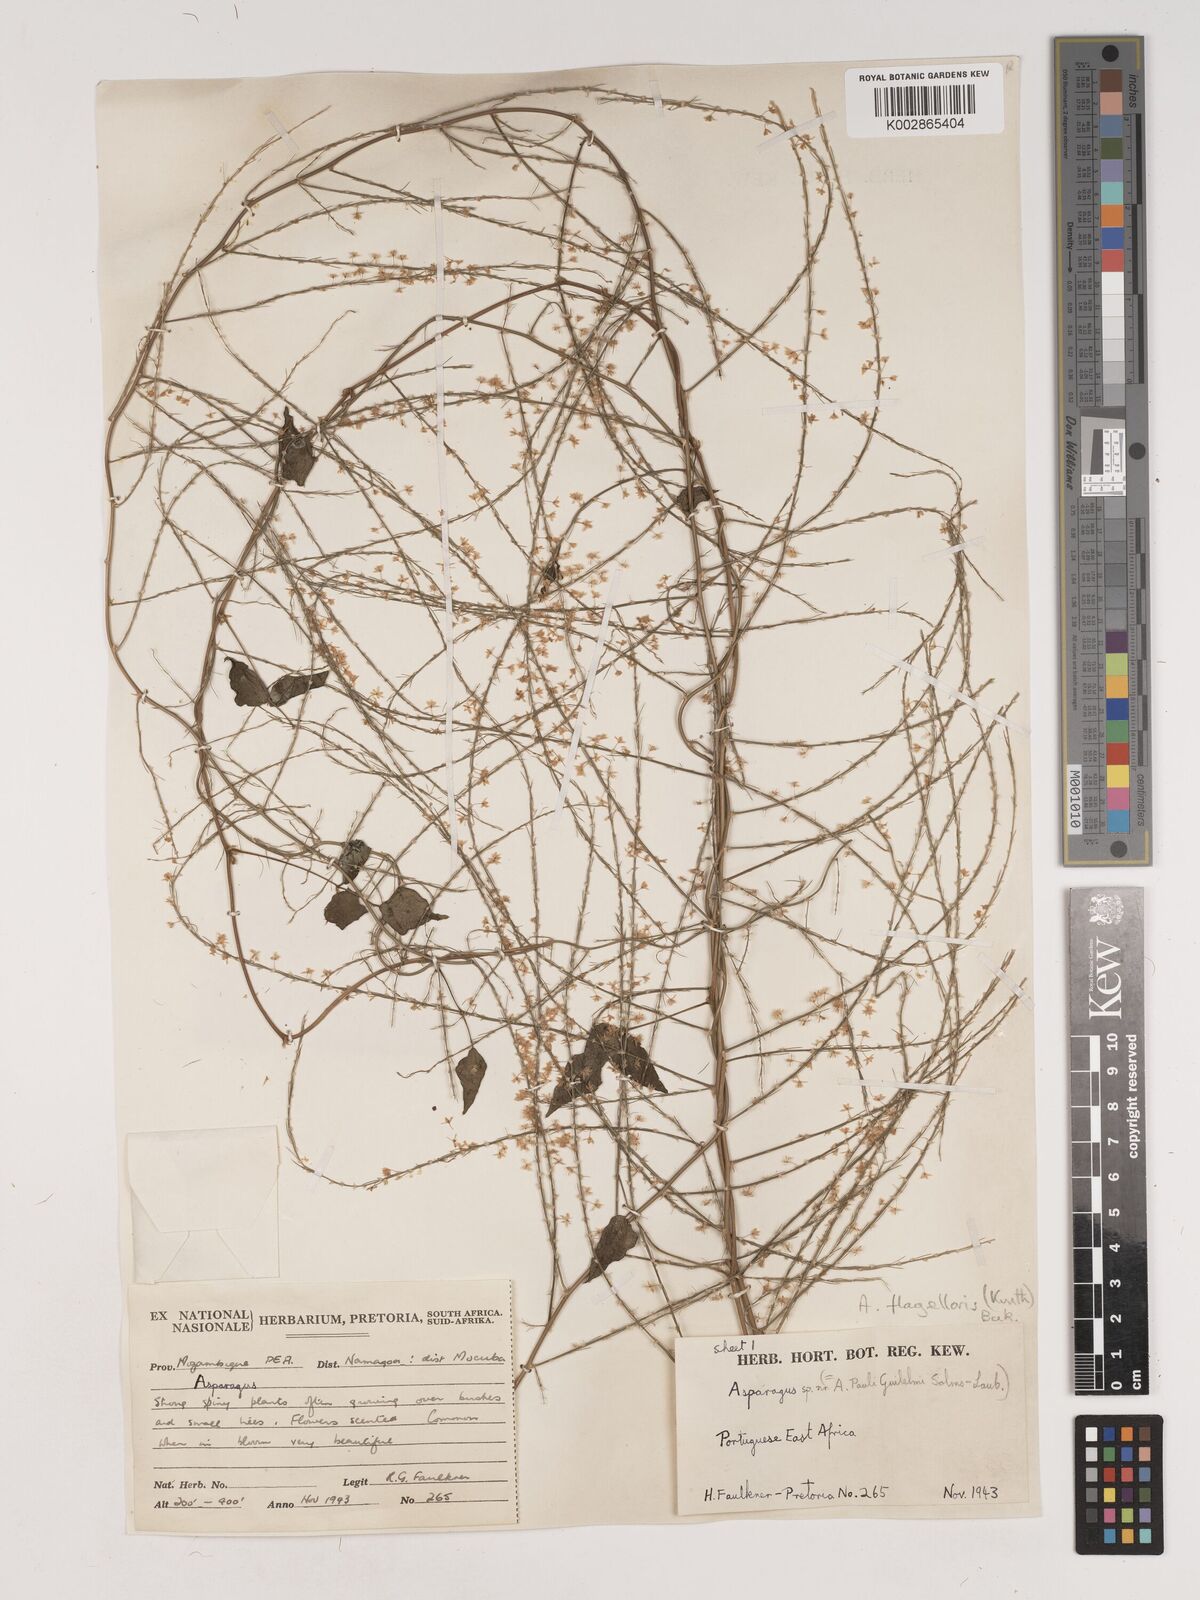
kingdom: Plantae
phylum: Tracheophyta
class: Liliopsida
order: Asparagales
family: Asparagaceae
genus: Asparagus
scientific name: Asparagus flagellaris
